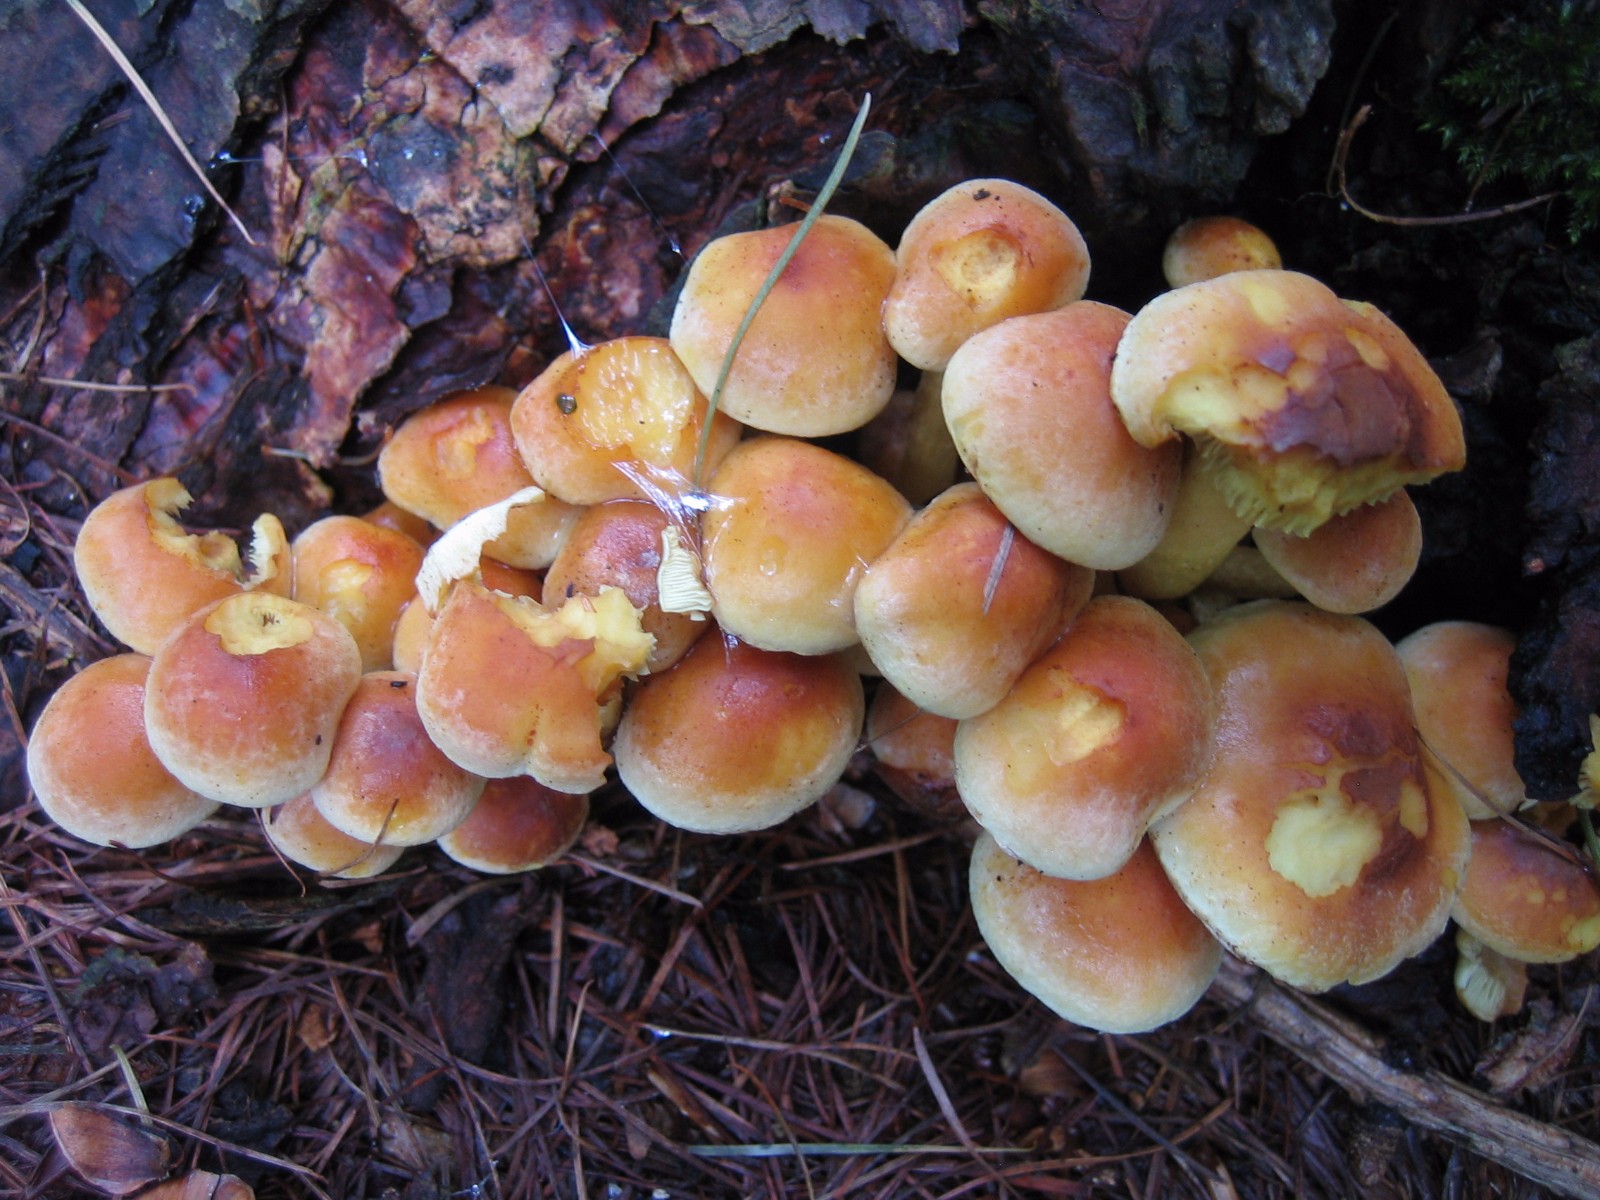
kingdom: Fungi
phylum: Basidiomycota
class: Agaricomycetes
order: Agaricales
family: Strophariaceae
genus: Hypholoma
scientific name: Hypholoma fasciculare
